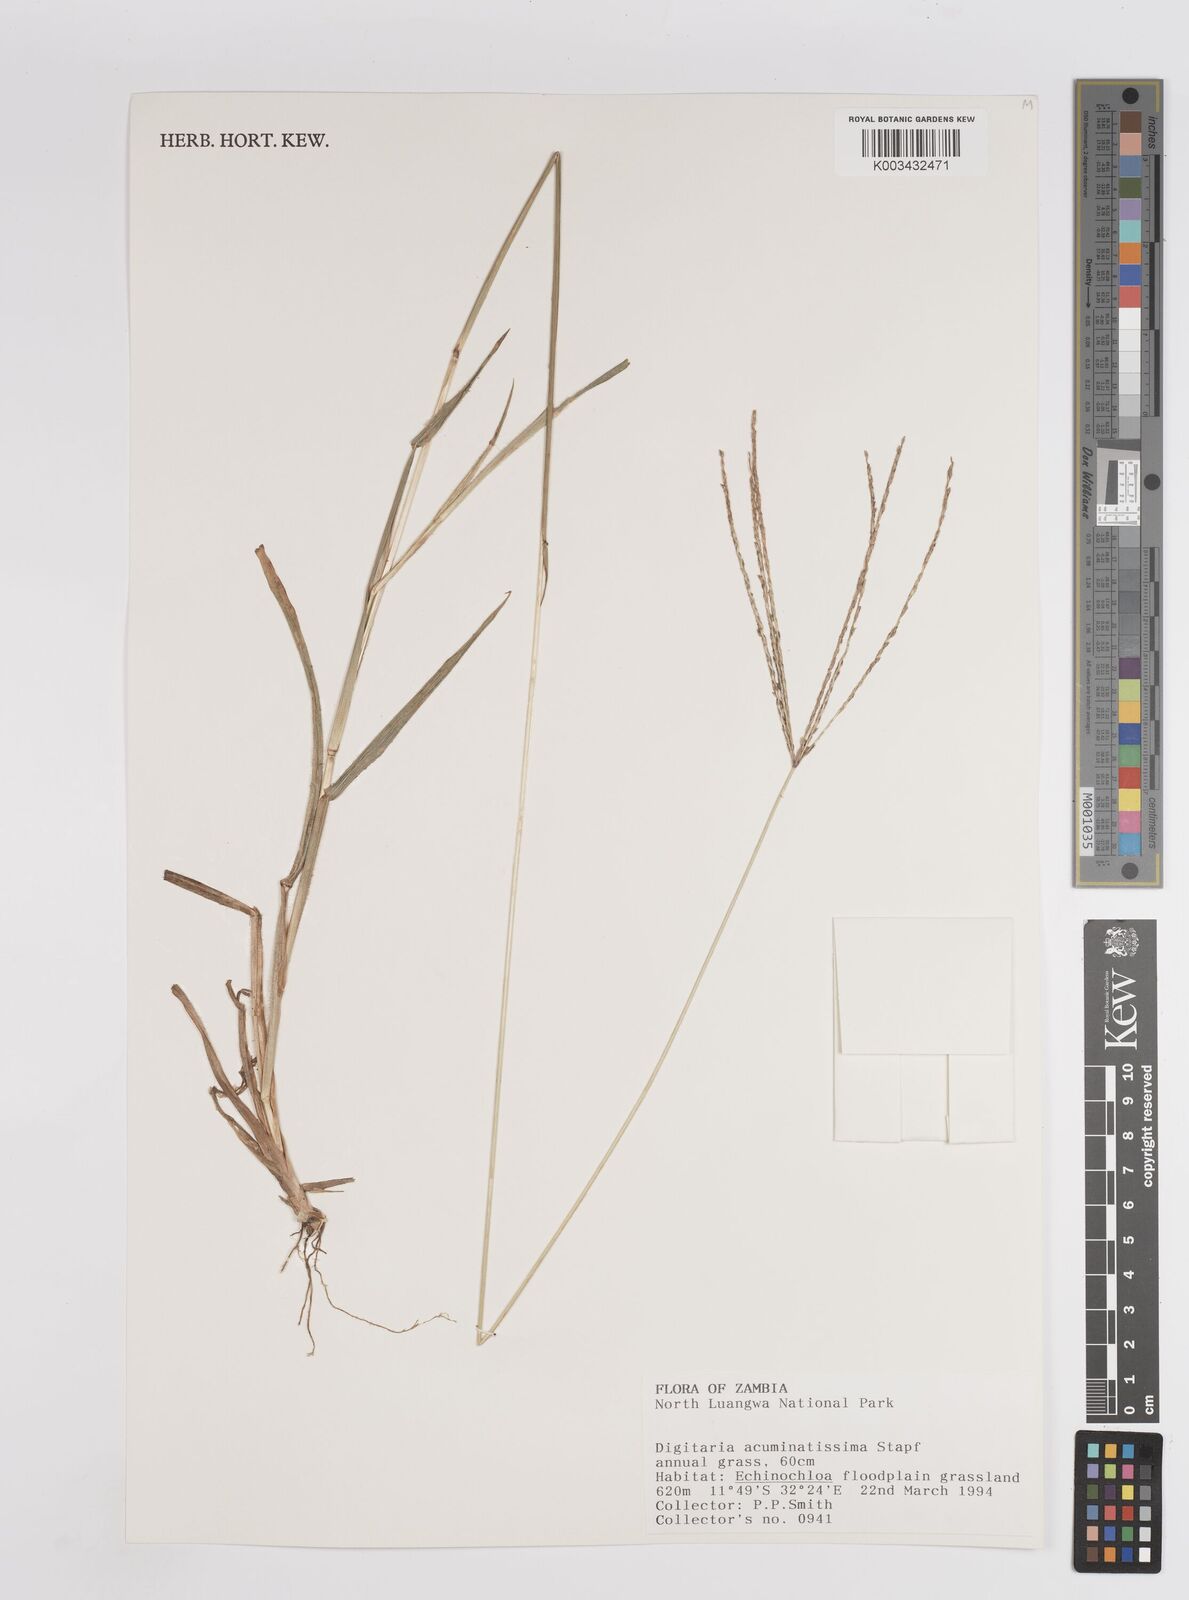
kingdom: Plantae
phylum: Tracheophyta
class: Liliopsida
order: Poales
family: Poaceae
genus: Digitaria
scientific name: Digitaria acuminatissima
